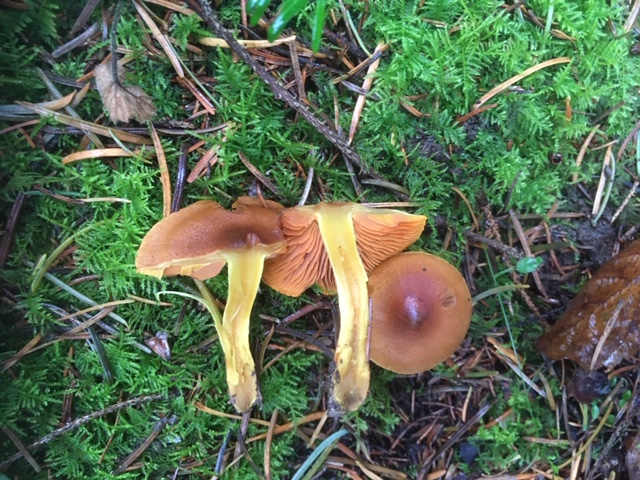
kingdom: Fungi
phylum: Basidiomycota
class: Agaricomycetes
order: Agaricales
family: Cortinariaceae
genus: Cortinarius
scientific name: Cortinarius malicorius
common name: grønkødet slørhat
